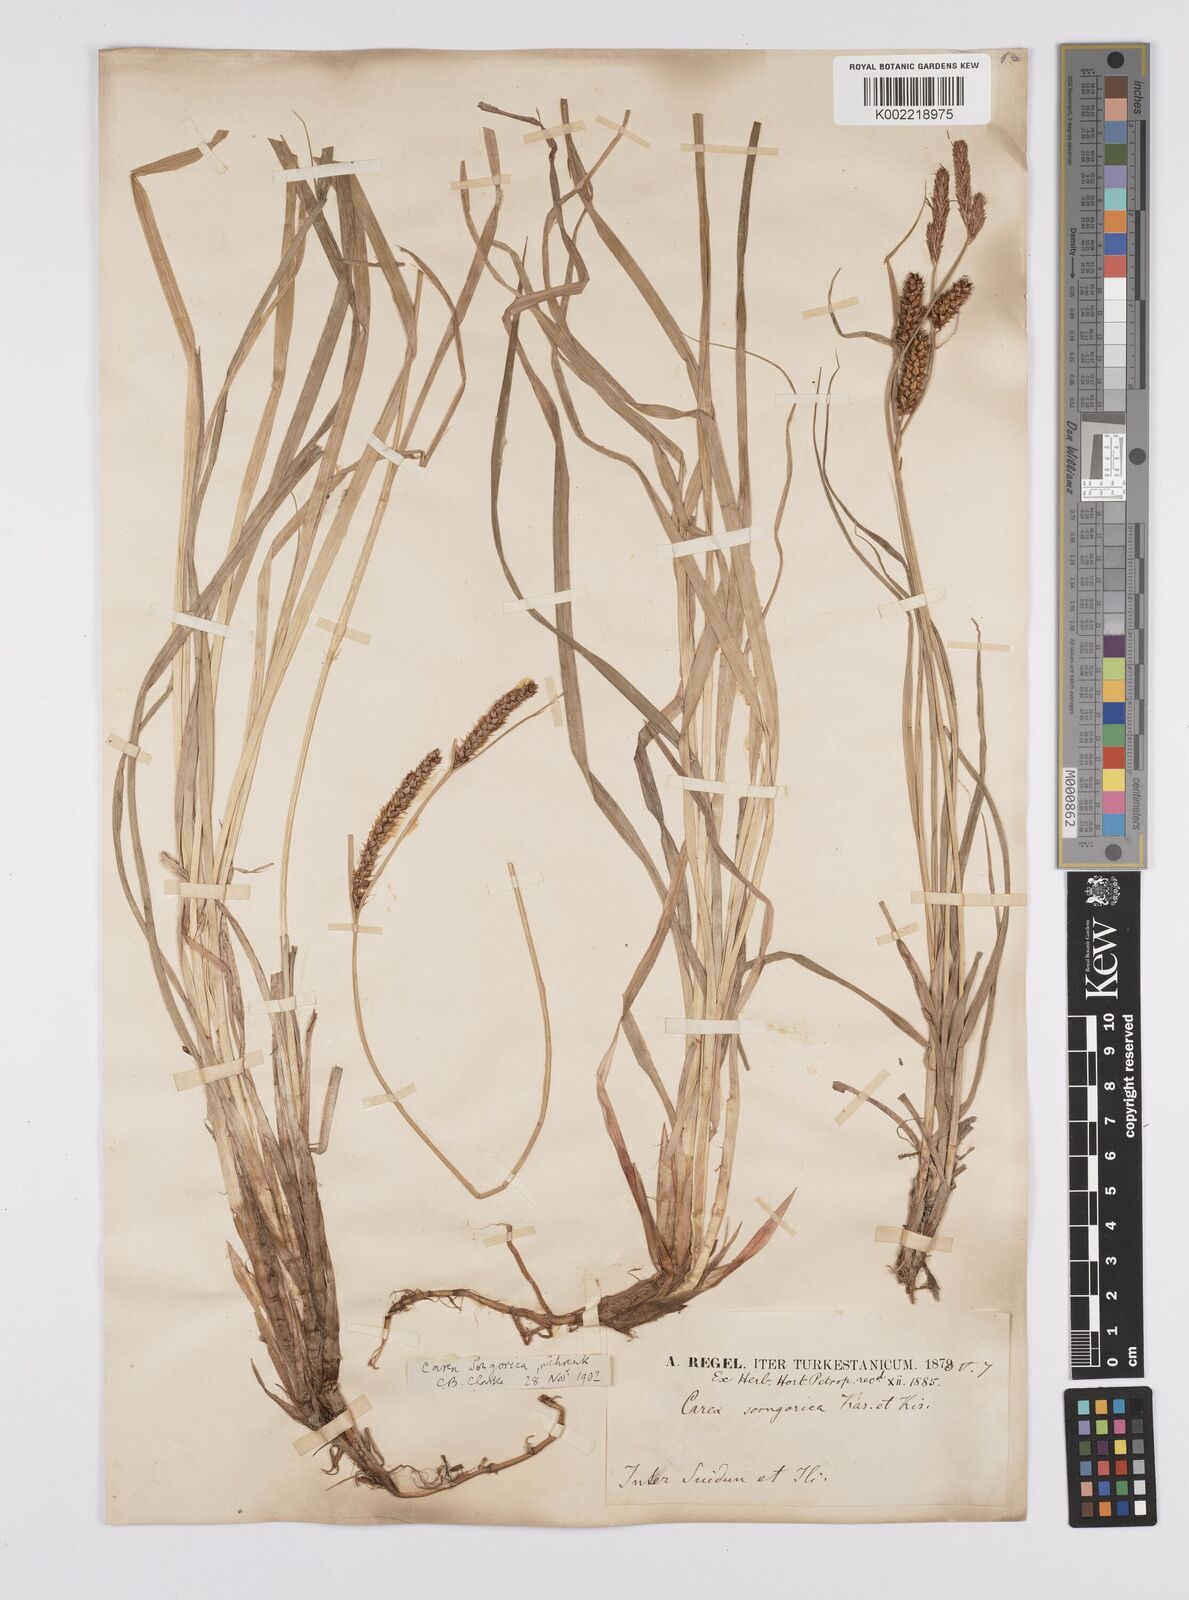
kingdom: Plantae
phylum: Tracheophyta
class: Liliopsida
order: Poales
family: Cyperaceae
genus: Carex
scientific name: Carex heterostachya
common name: Different-spike sedge
